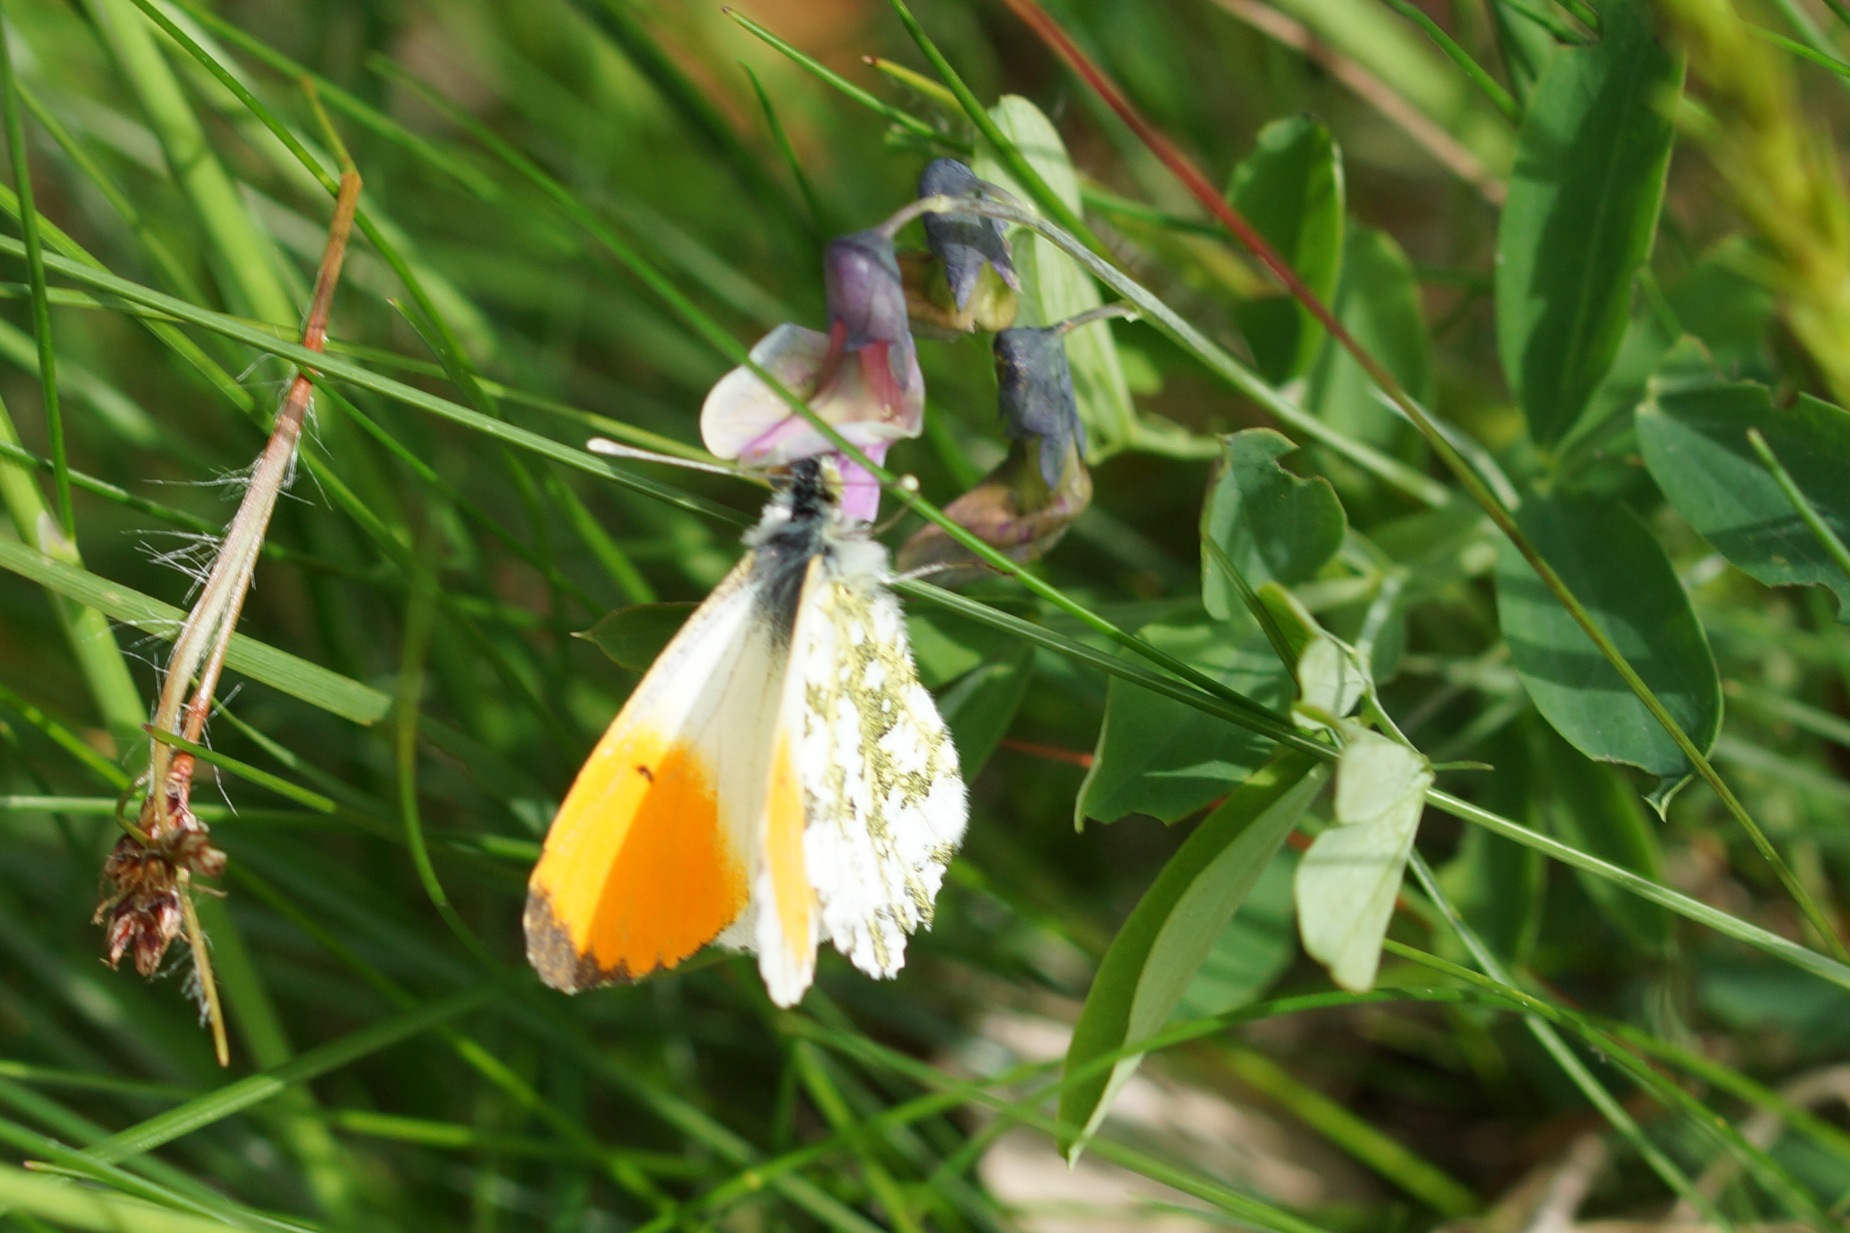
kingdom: Animalia
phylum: Arthropoda
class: Insecta
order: Lepidoptera
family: Pieridae
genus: Anthocharis
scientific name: Anthocharis cardamines
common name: Aurora
